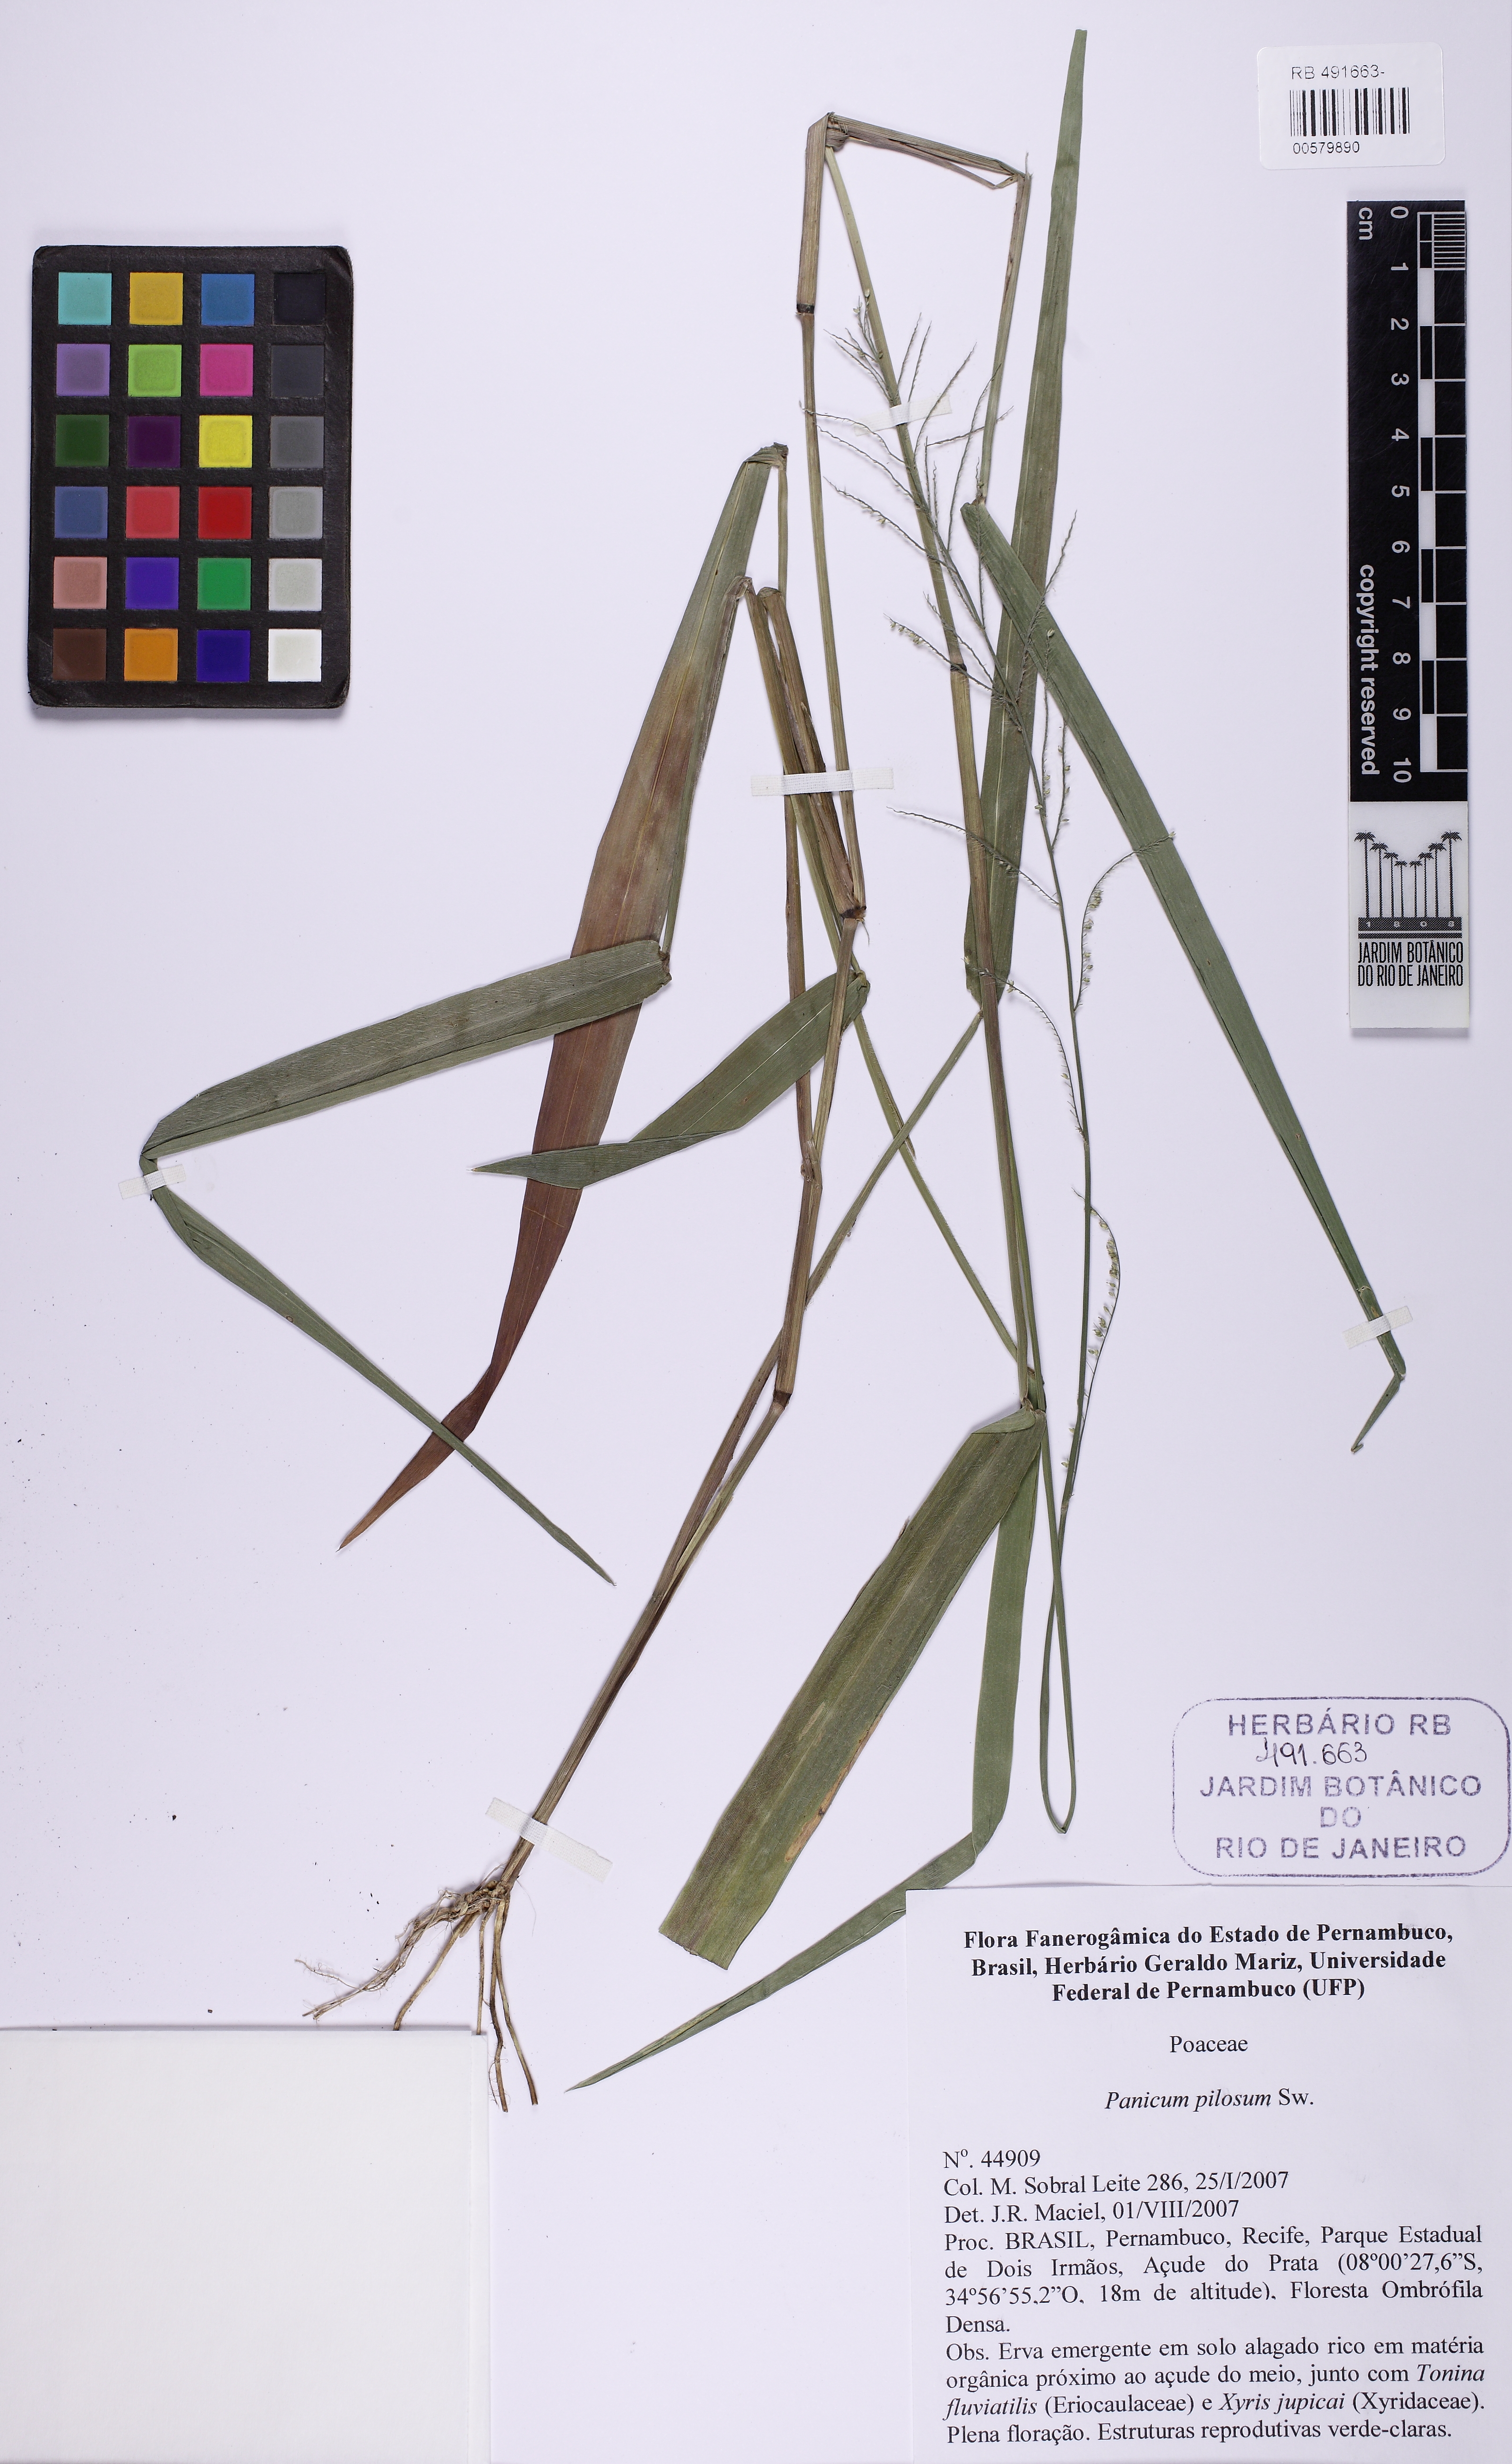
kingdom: Plantae
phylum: Tracheophyta
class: Liliopsida
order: Poales
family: Poaceae
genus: Rugoloa
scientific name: Rugoloa pilosa
